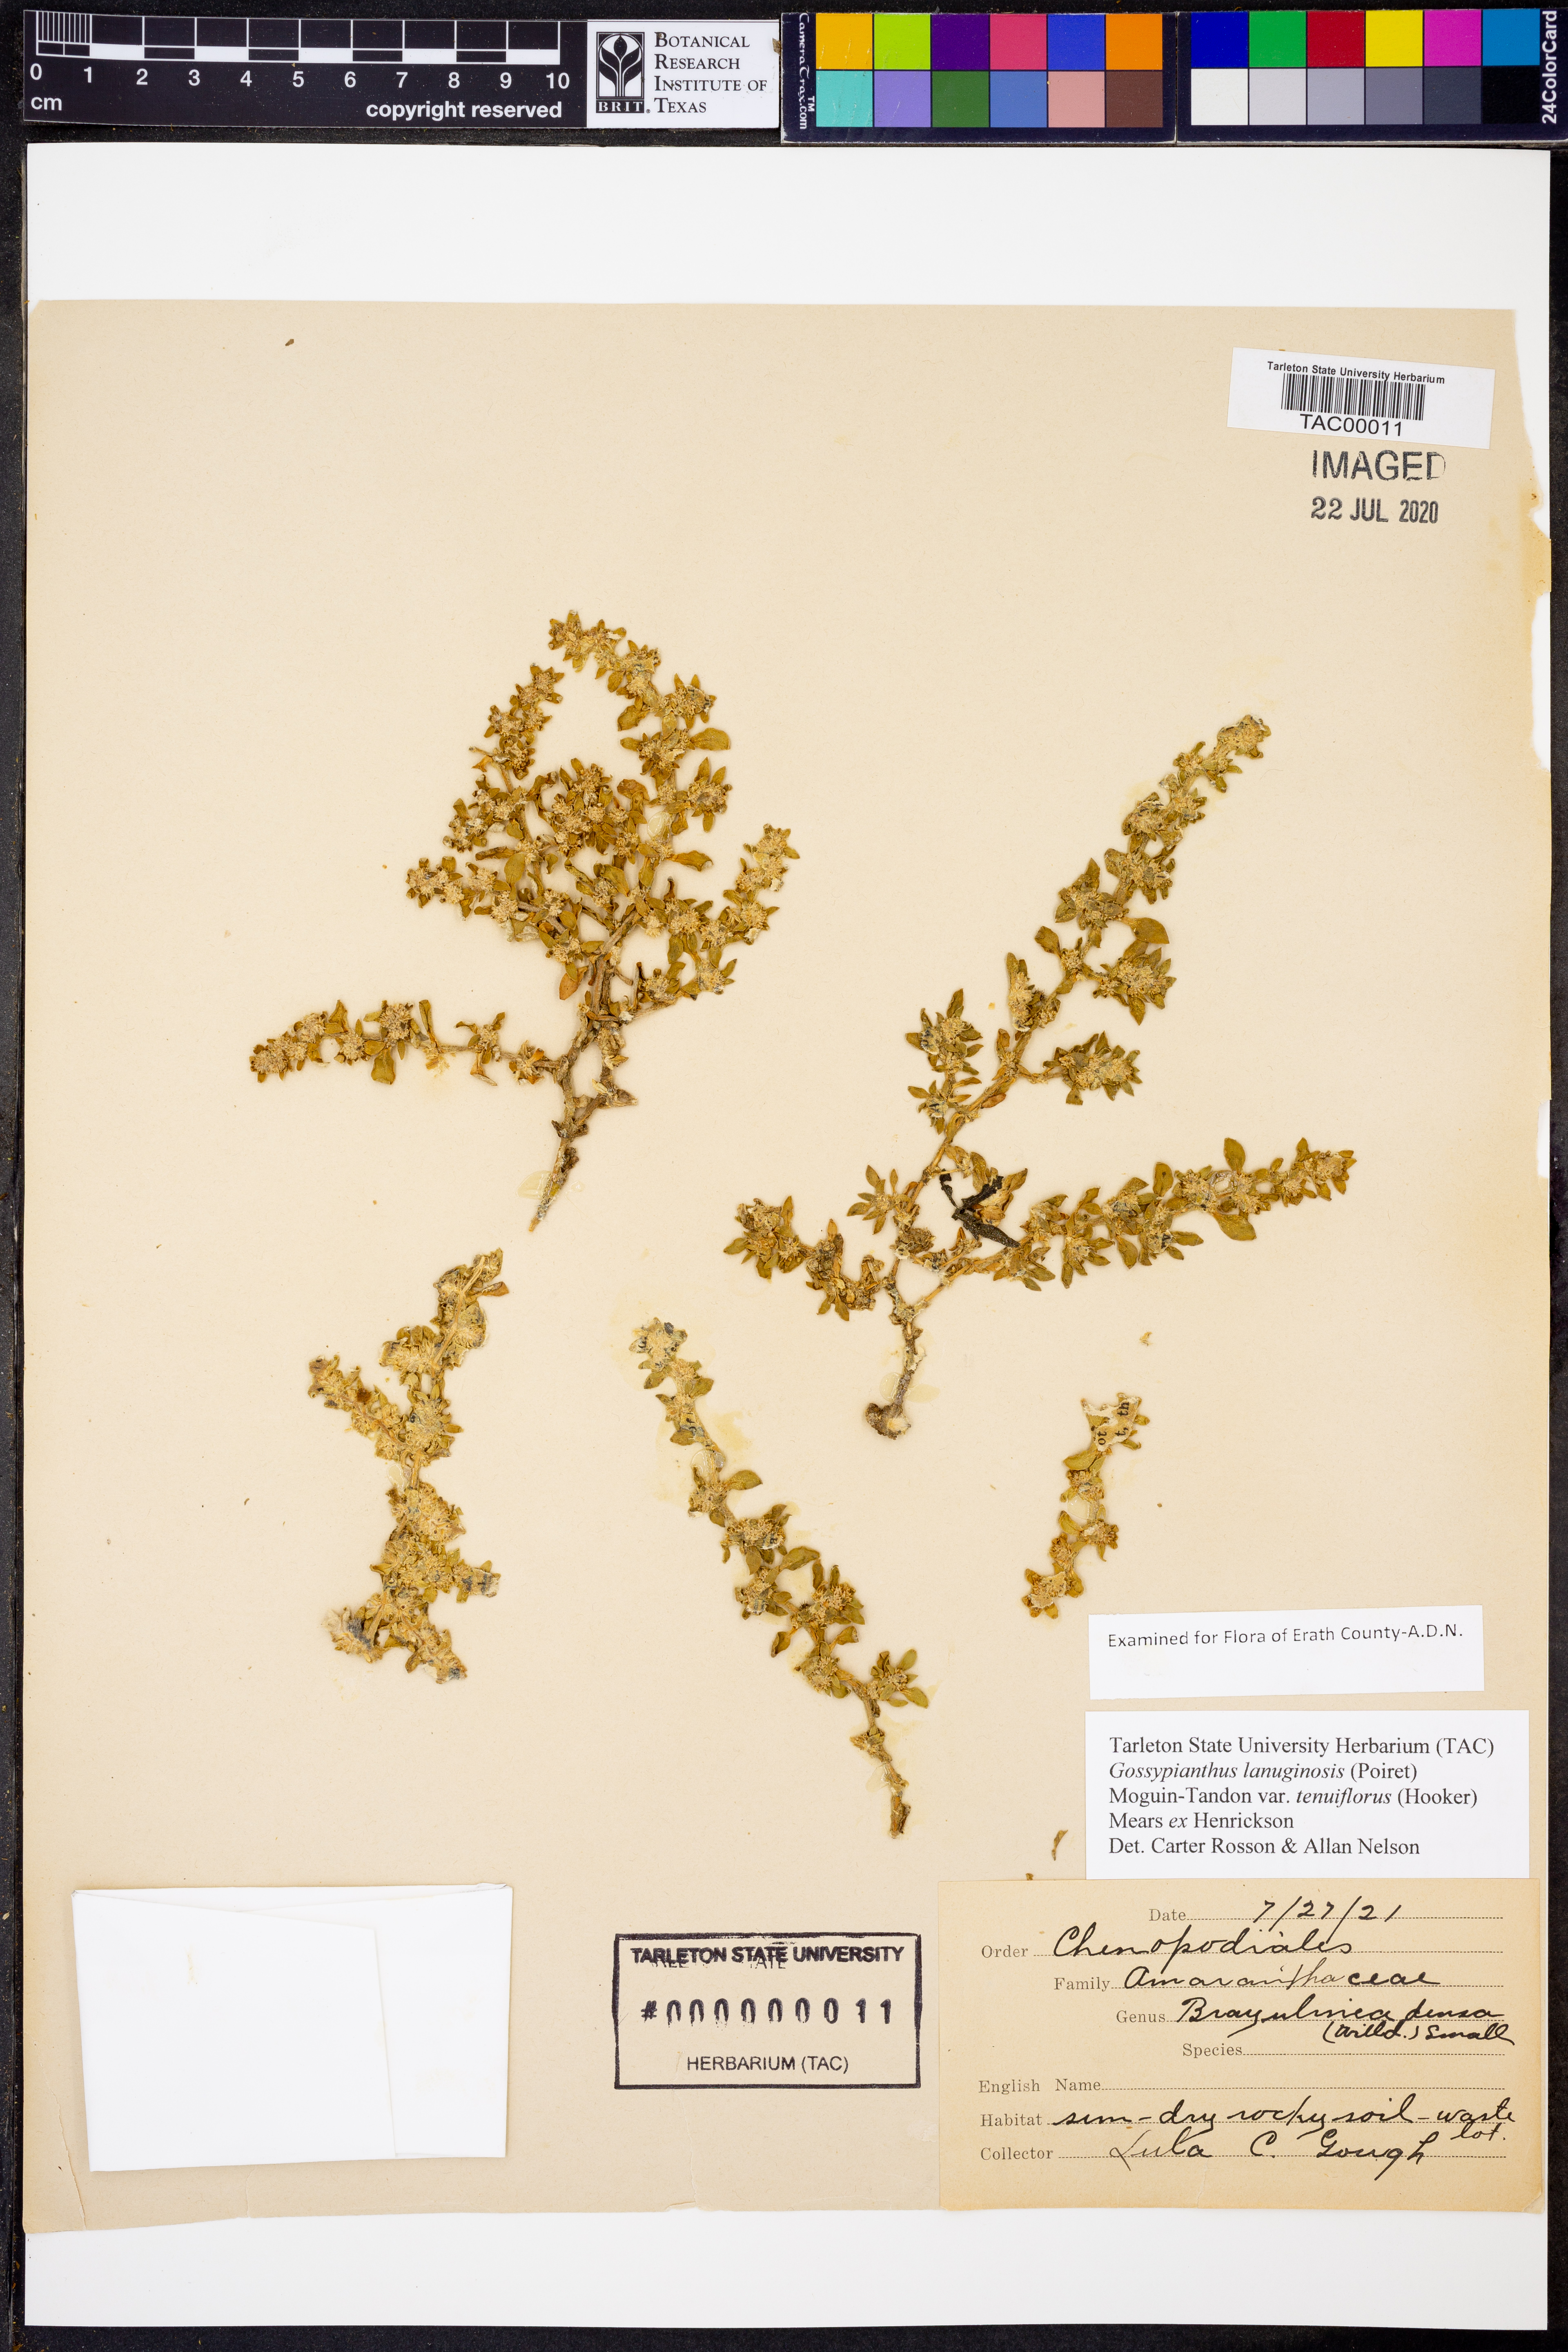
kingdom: Plantae
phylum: Tracheophyta
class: Magnoliopsida
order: Caryophyllales
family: Amaranthaceae
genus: Gomphrena
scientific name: Gomphrena lanuparonychioides
